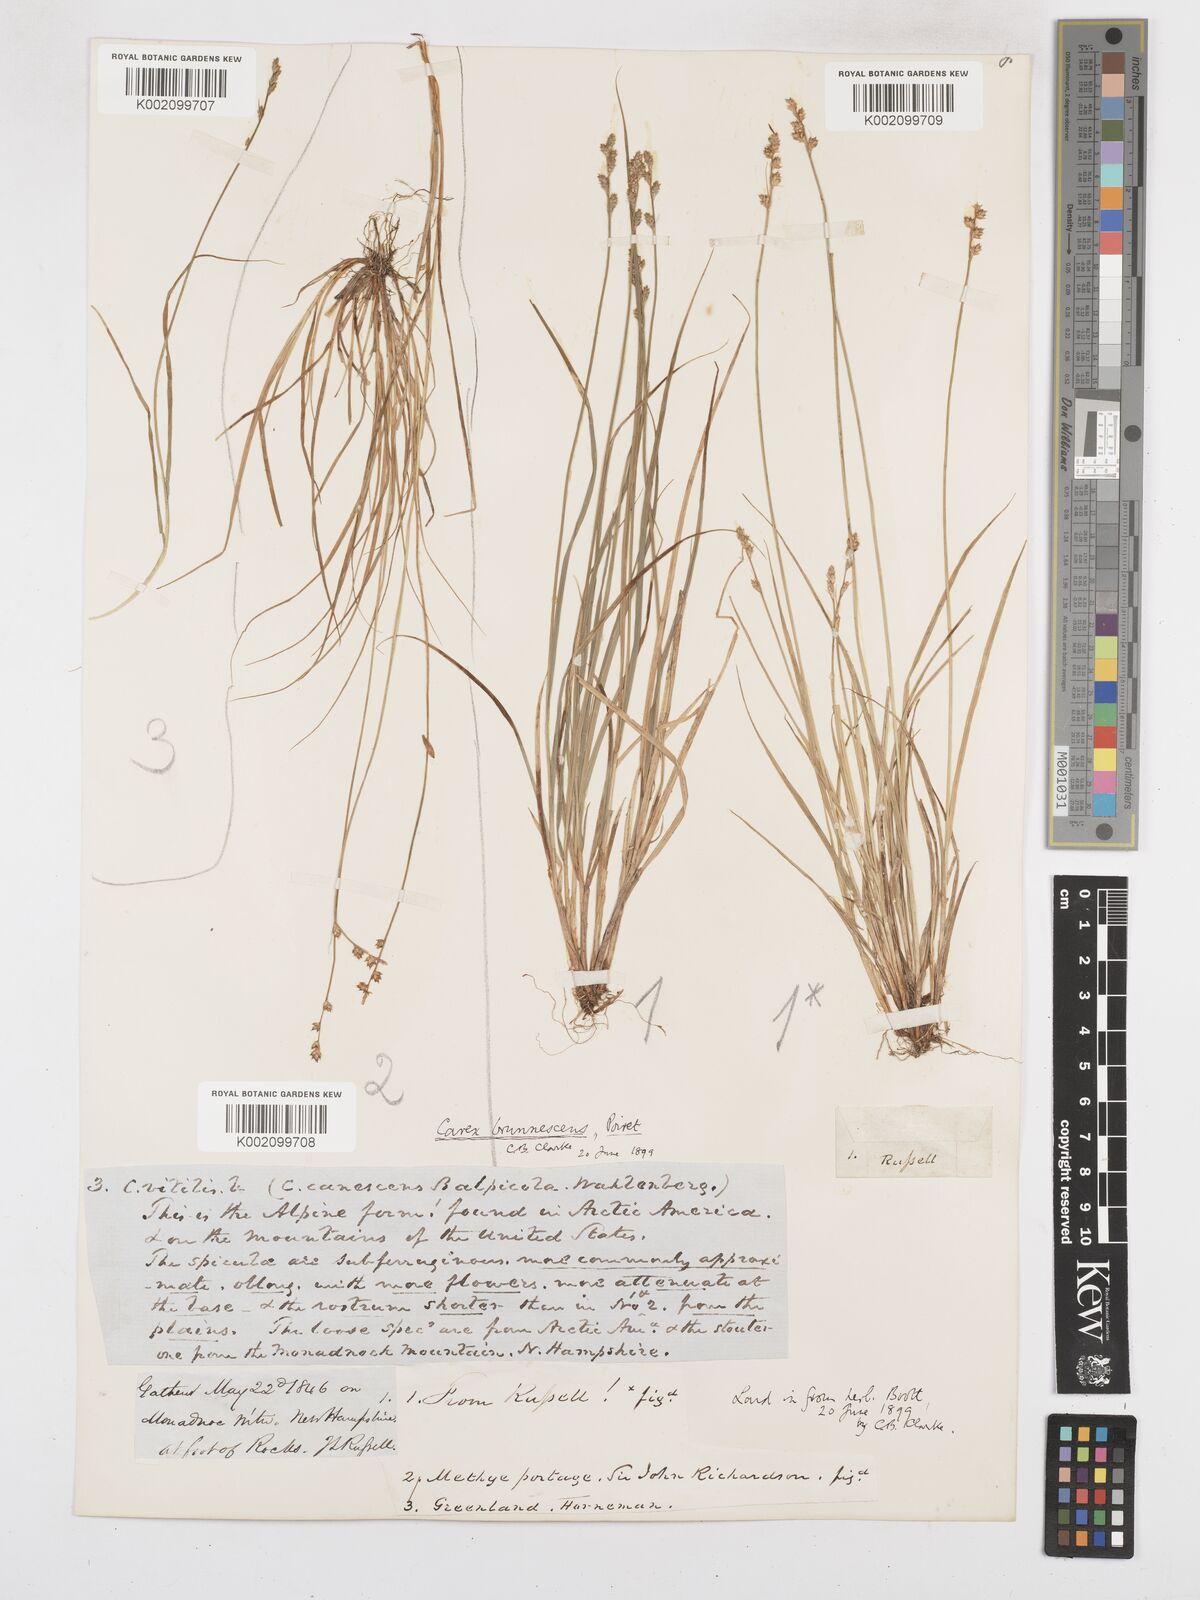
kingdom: Plantae
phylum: Tracheophyta
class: Liliopsida
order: Poales
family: Cyperaceae
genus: Carex
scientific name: Carex brunnescens
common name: Brown sedge
